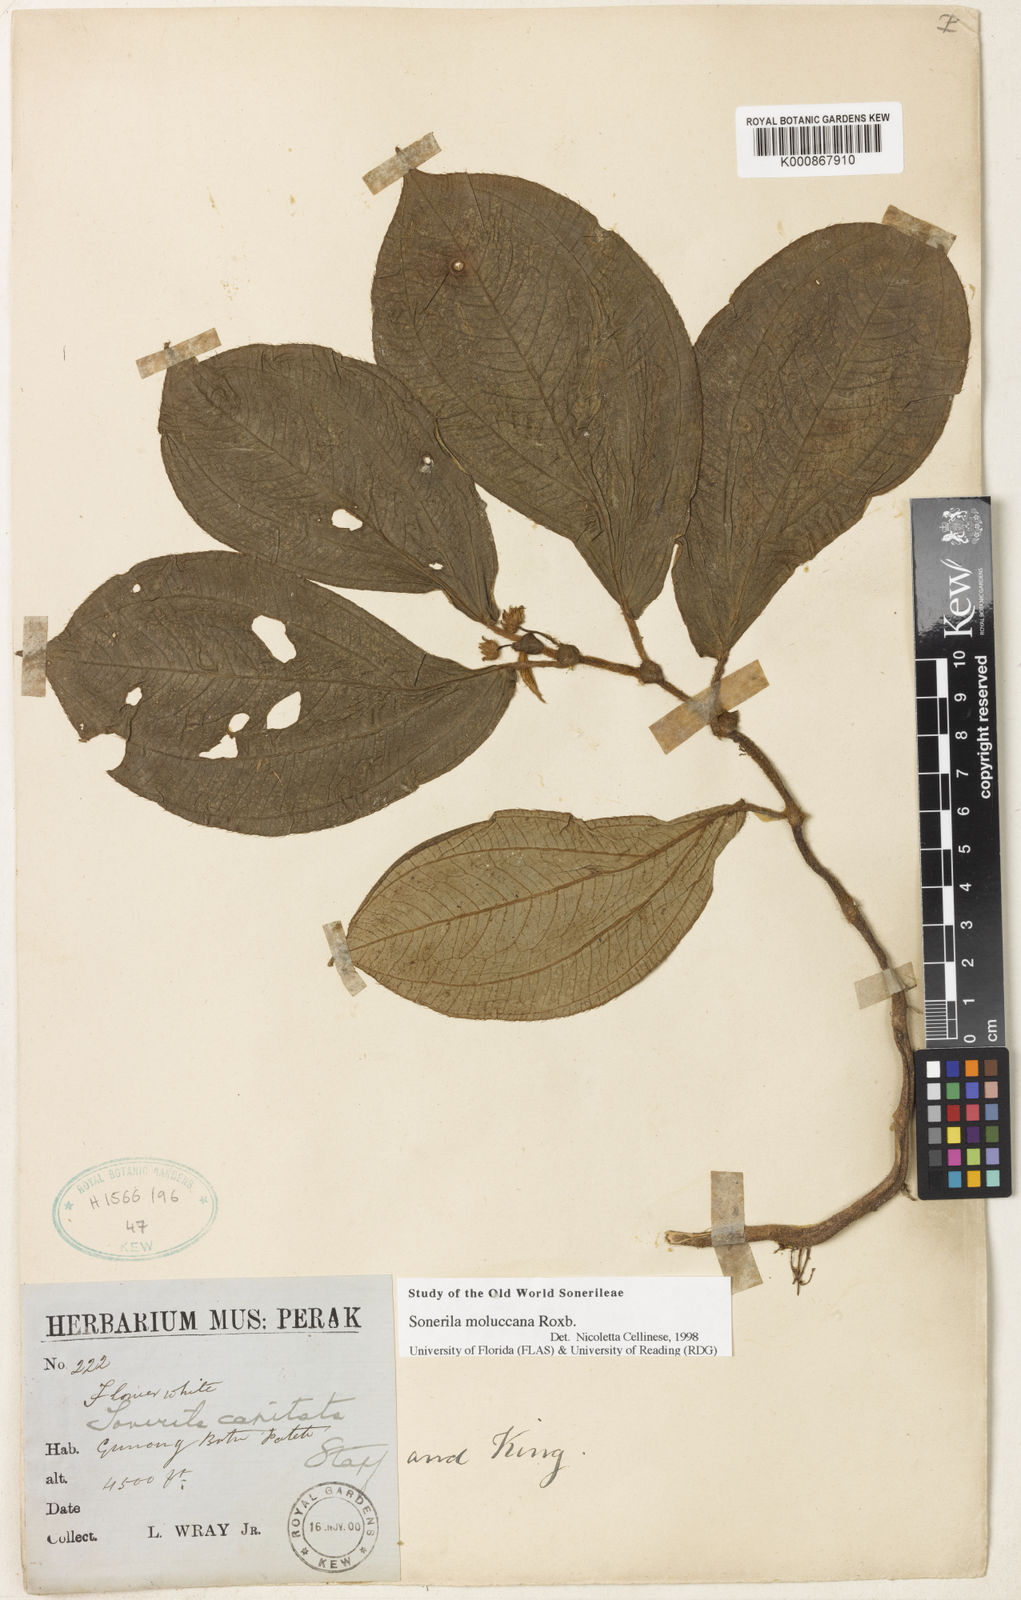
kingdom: Plantae
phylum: Tracheophyta
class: Magnoliopsida
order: Myrtales
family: Melastomataceae
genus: Sonerila
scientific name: Sonerila moluccana
